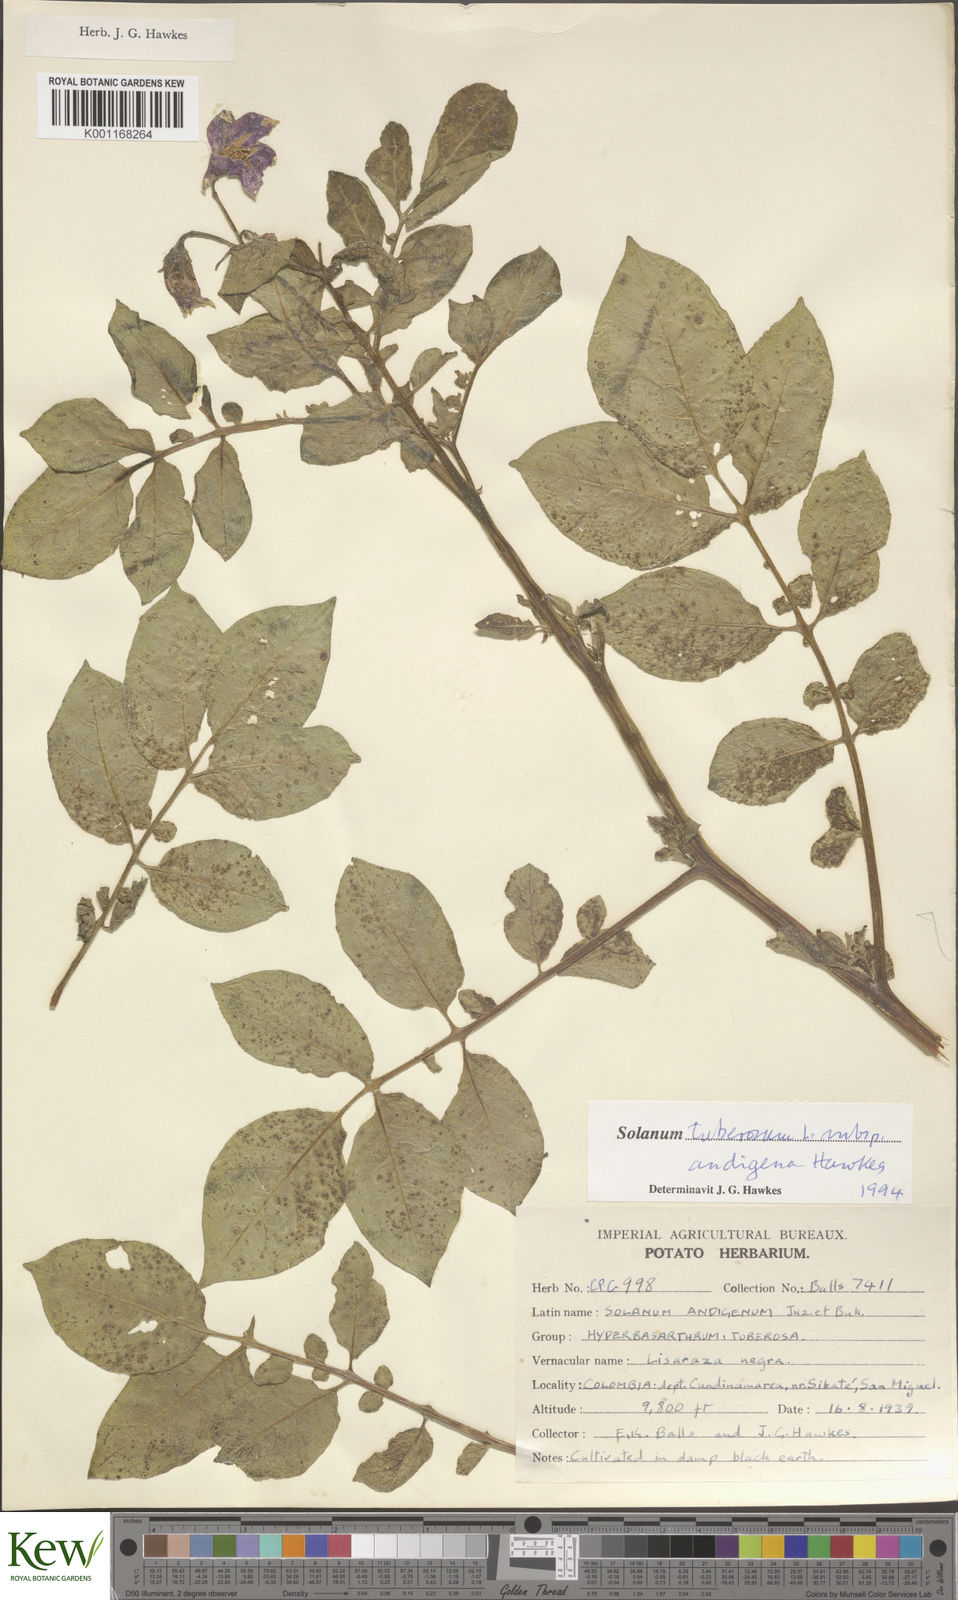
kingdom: Plantae
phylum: Tracheophyta
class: Magnoliopsida
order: Solanales
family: Solanaceae
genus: Solanum
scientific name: Solanum tuberosum
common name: Potato
